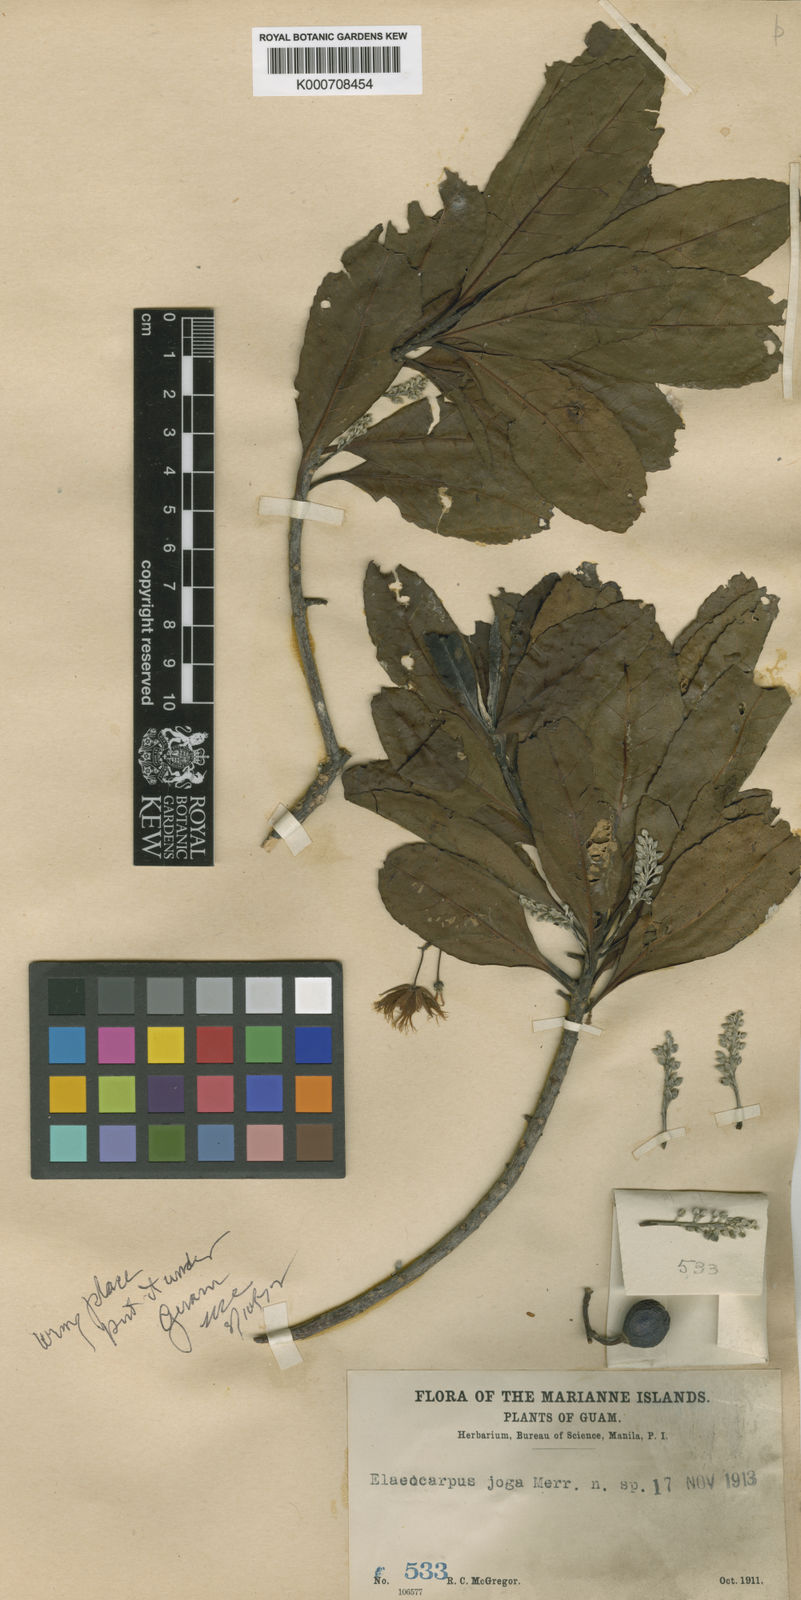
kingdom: Plantae
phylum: Tracheophyta
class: Magnoliopsida
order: Oxalidales
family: Elaeocarpaceae
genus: Elaeocarpus
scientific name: Elaeocarpus angustifolius
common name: Blue marble tree
